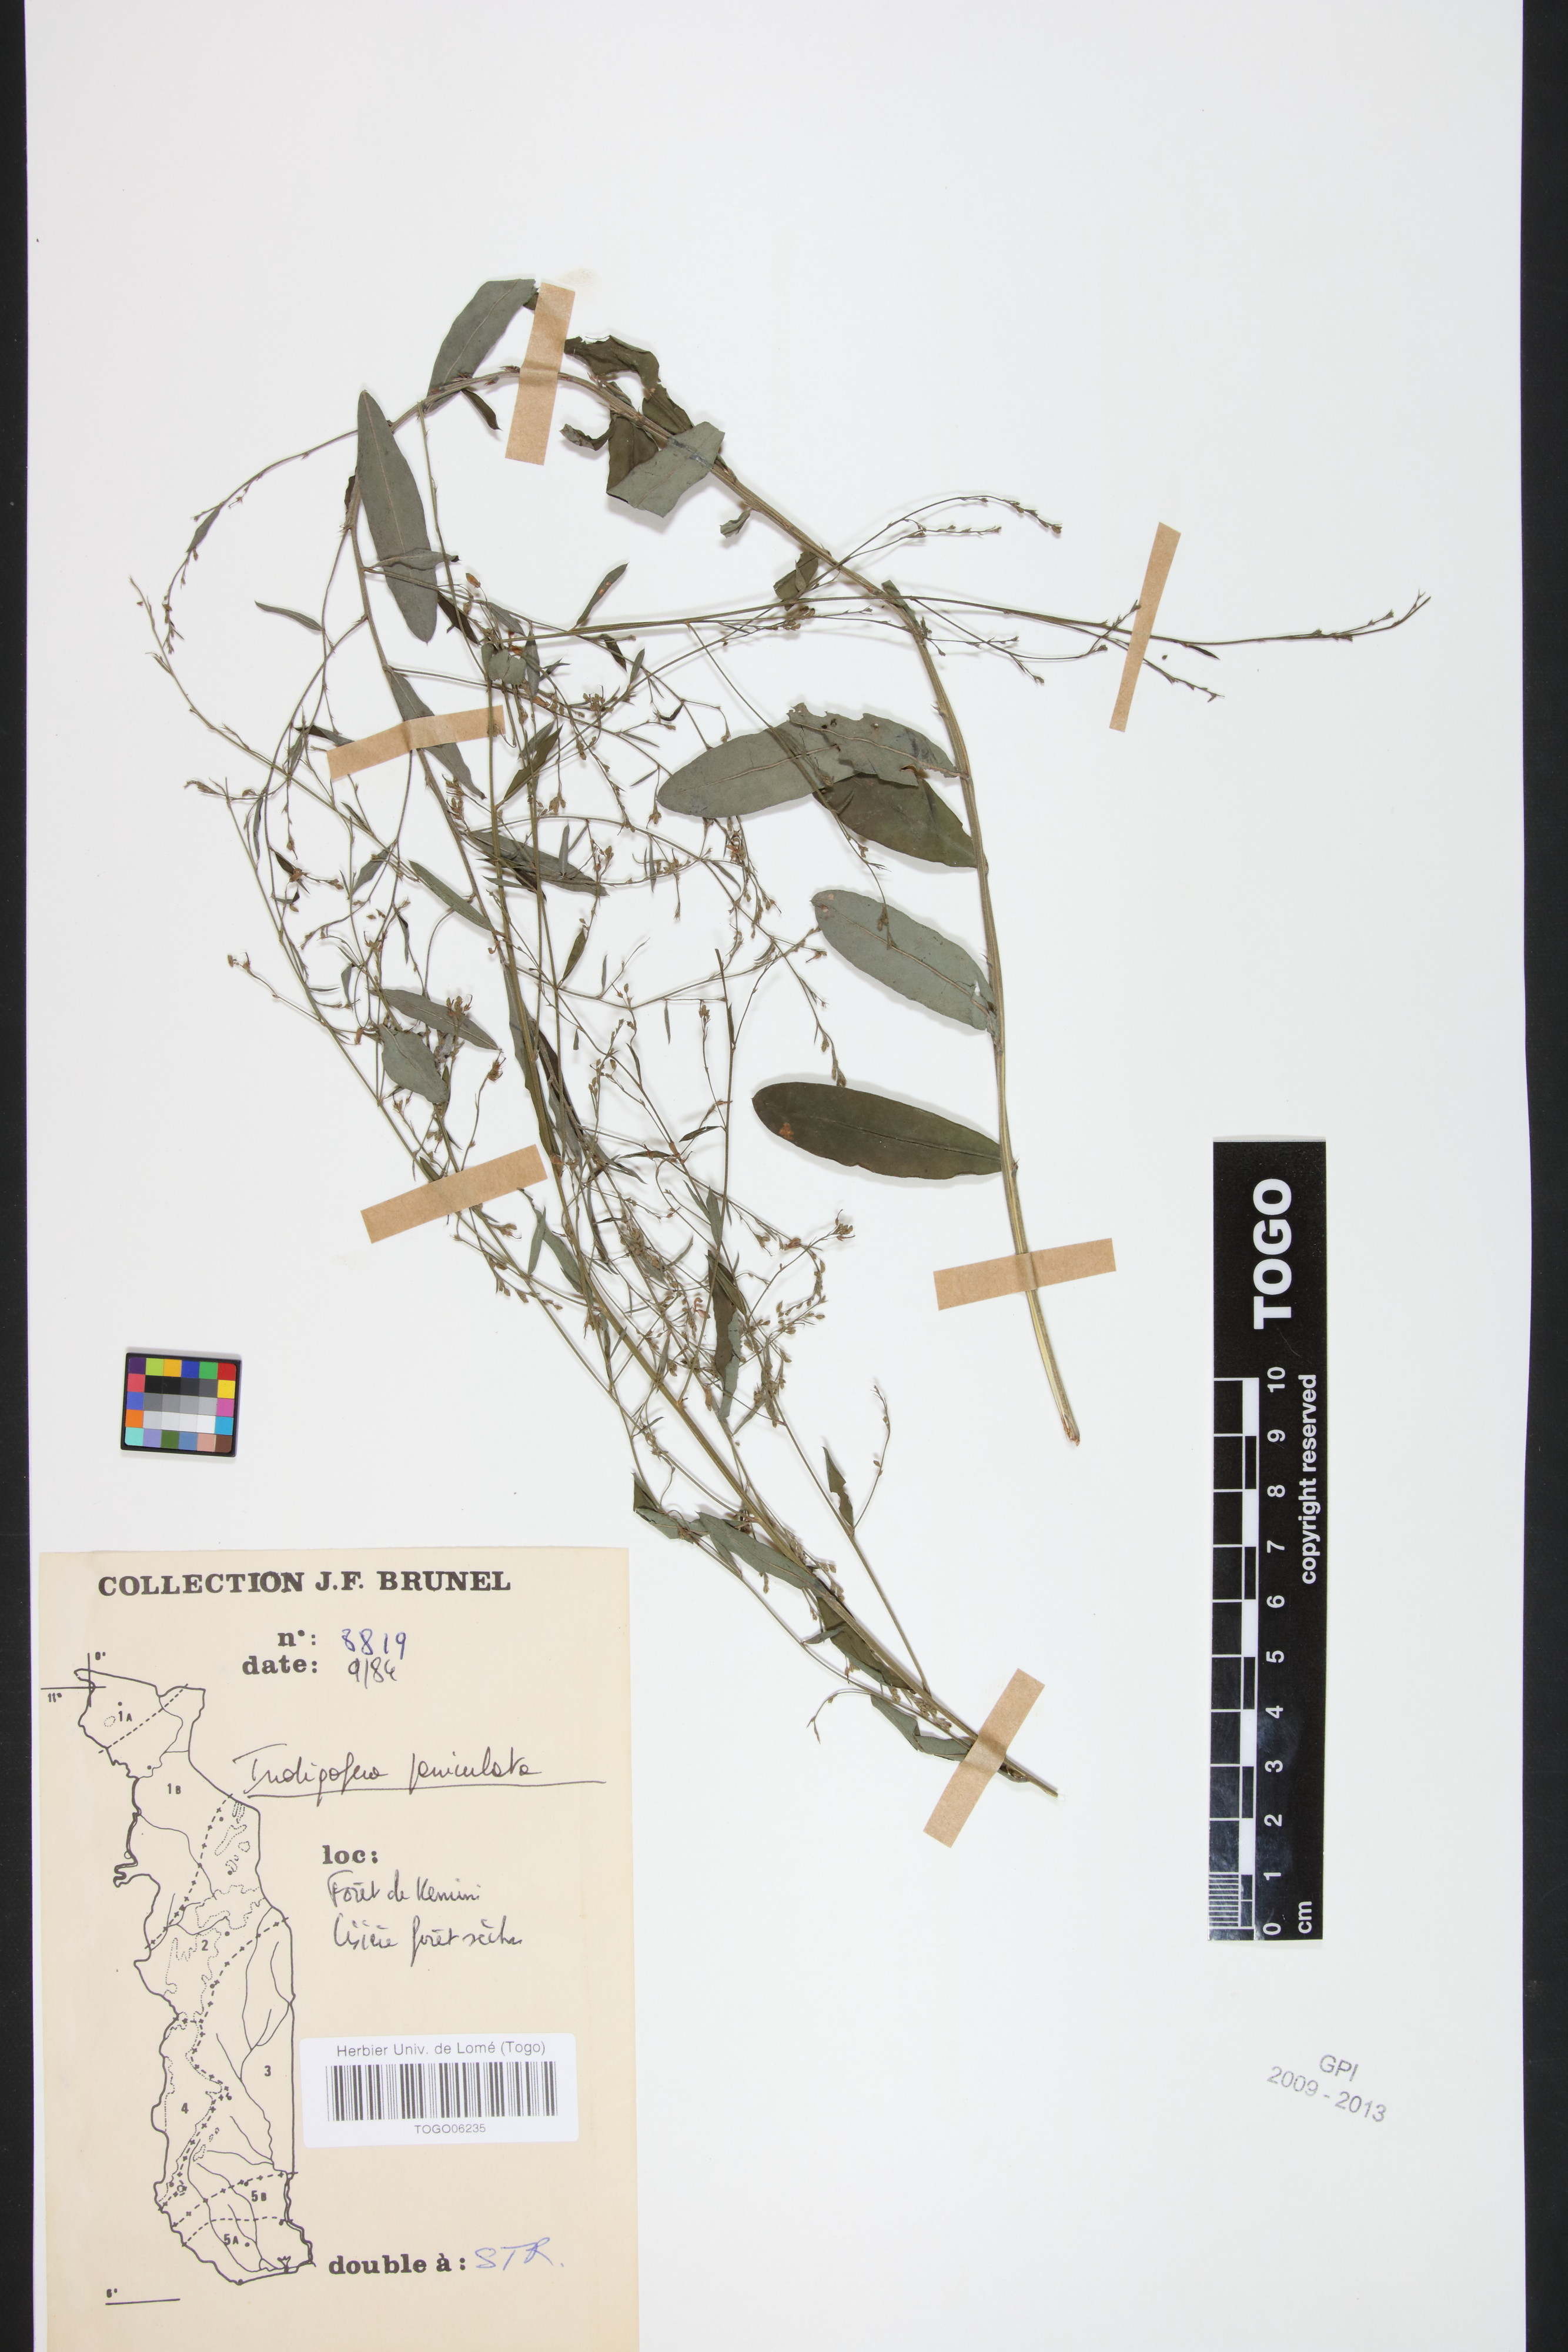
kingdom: Plantae
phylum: Tracheophyta
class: Magnoliopsida
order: Fabales
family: Fabaceae
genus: Indigofera
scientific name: Indigofera paniculata
